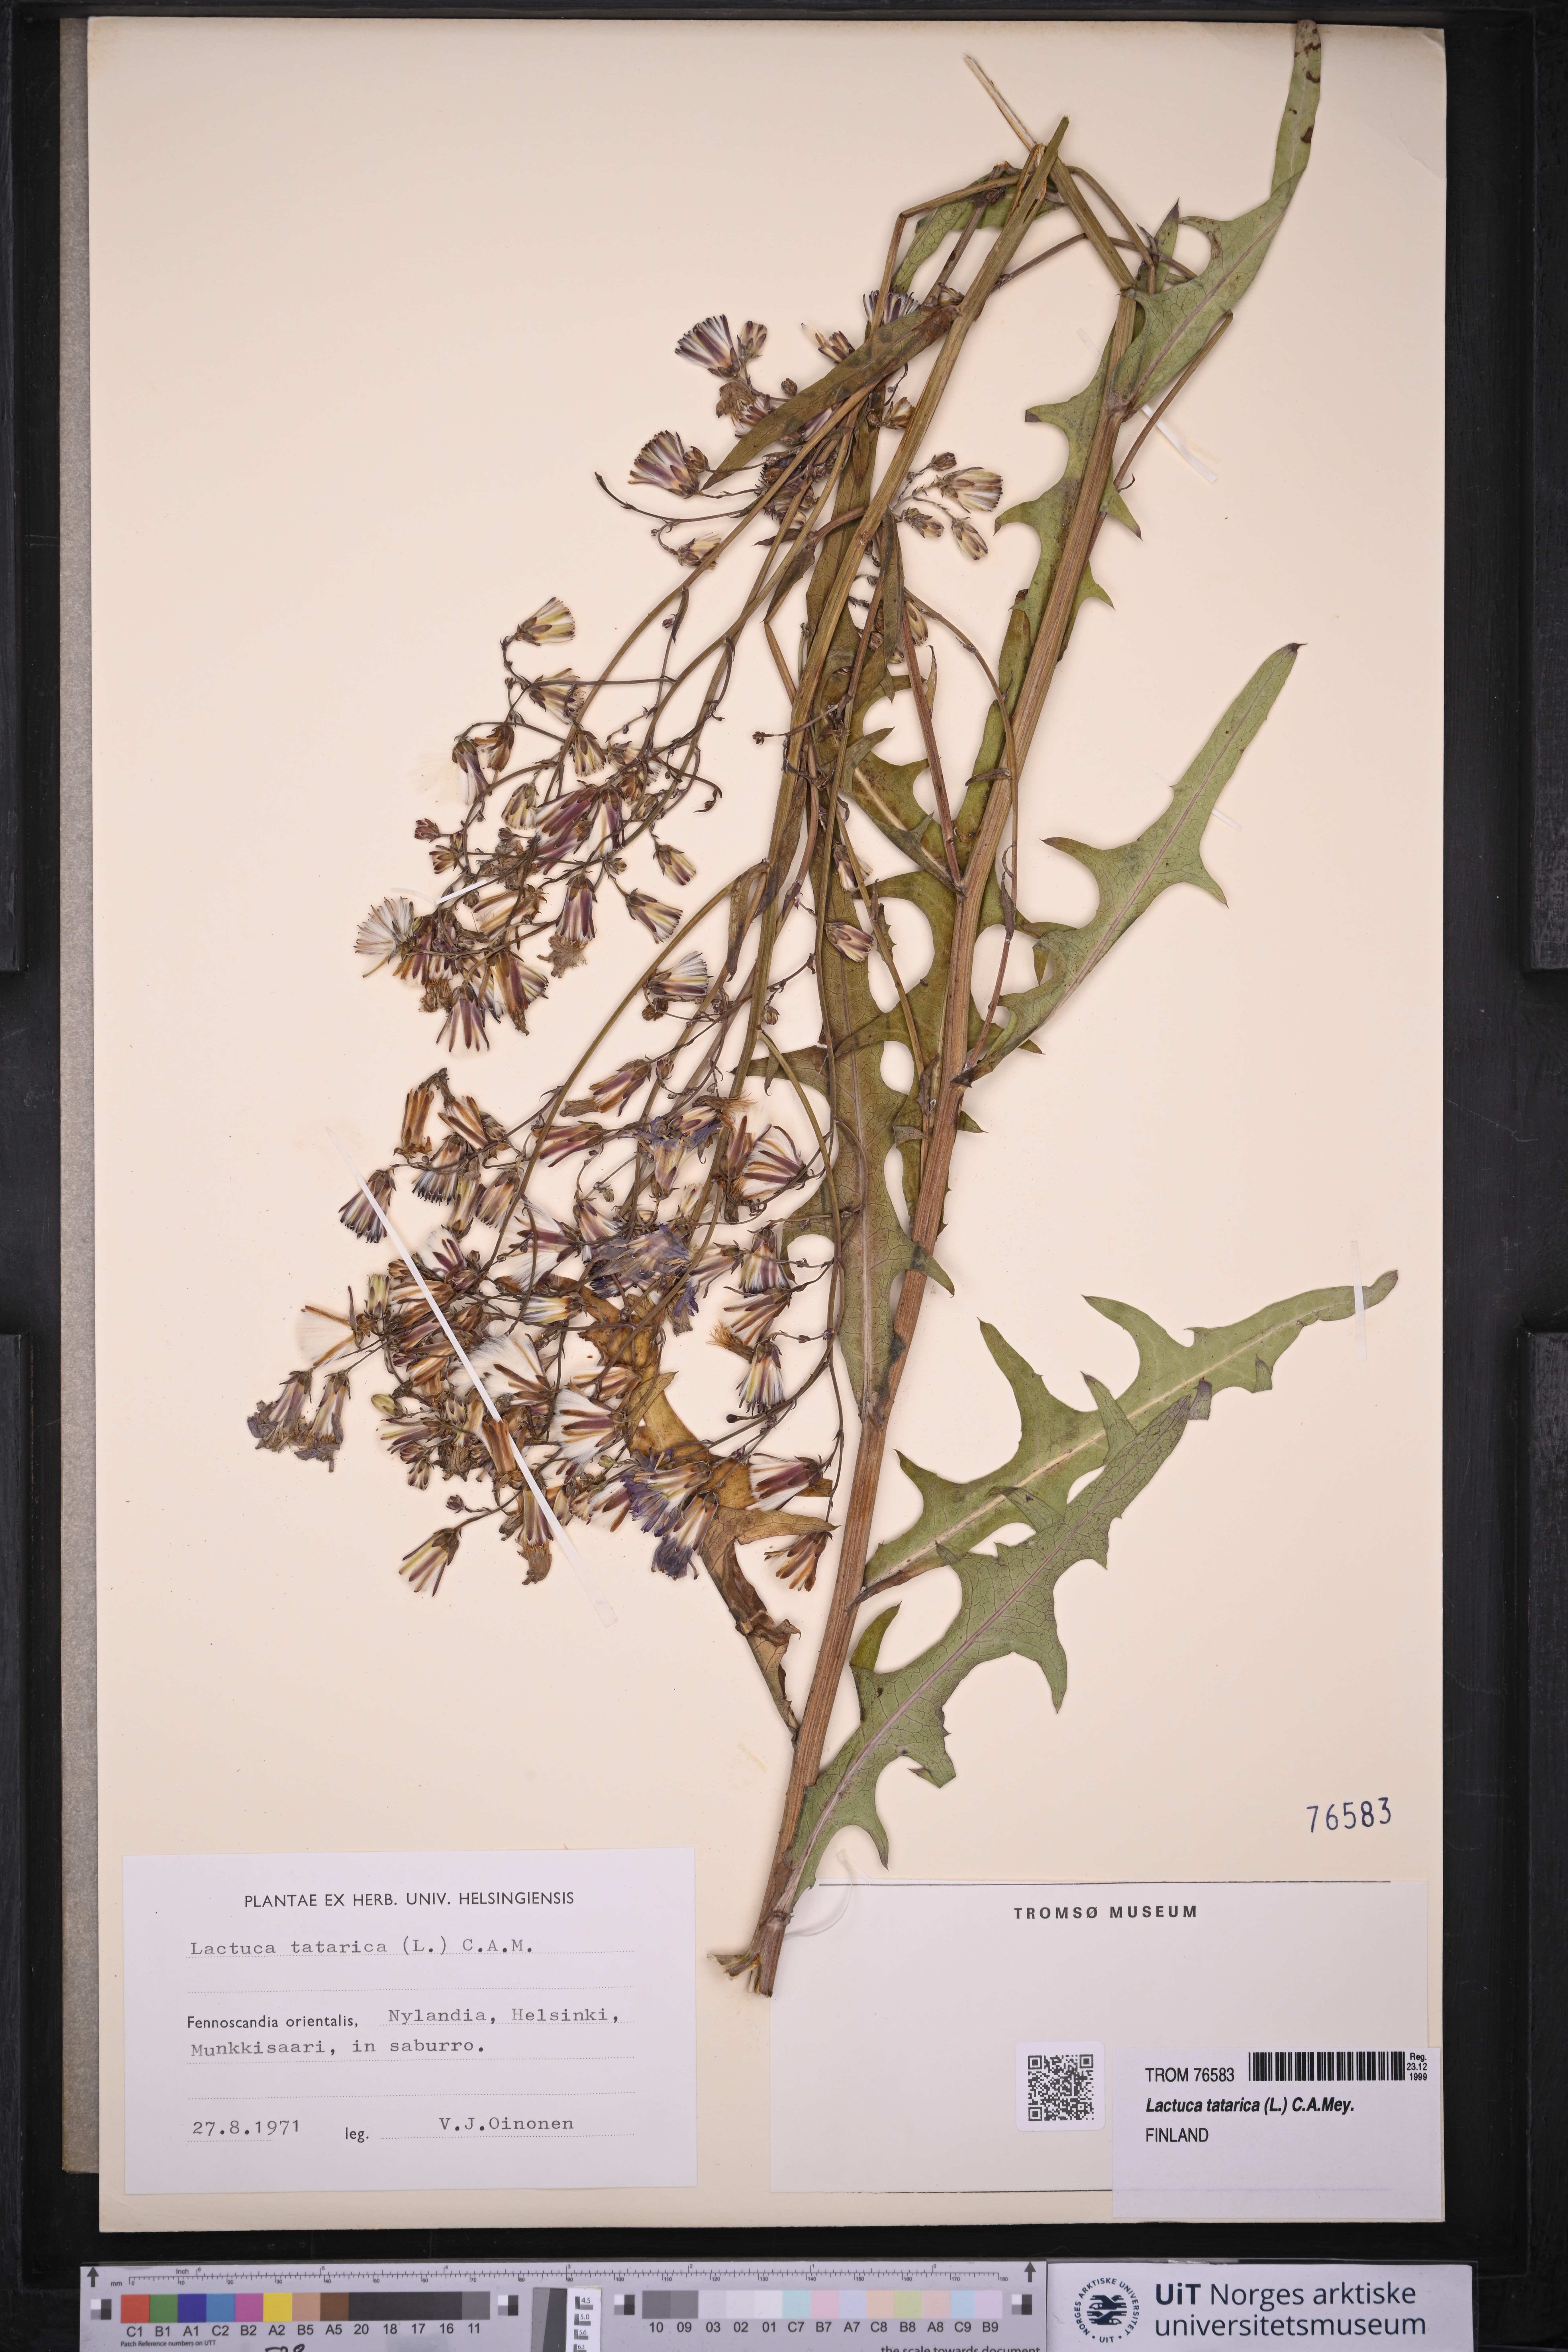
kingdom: Plantae
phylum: Tracheophyta
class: Magnoliopsida
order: Asterales
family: Asteraceae
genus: Lactuca
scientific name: Lactuca tatarica
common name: Blue lettuce
